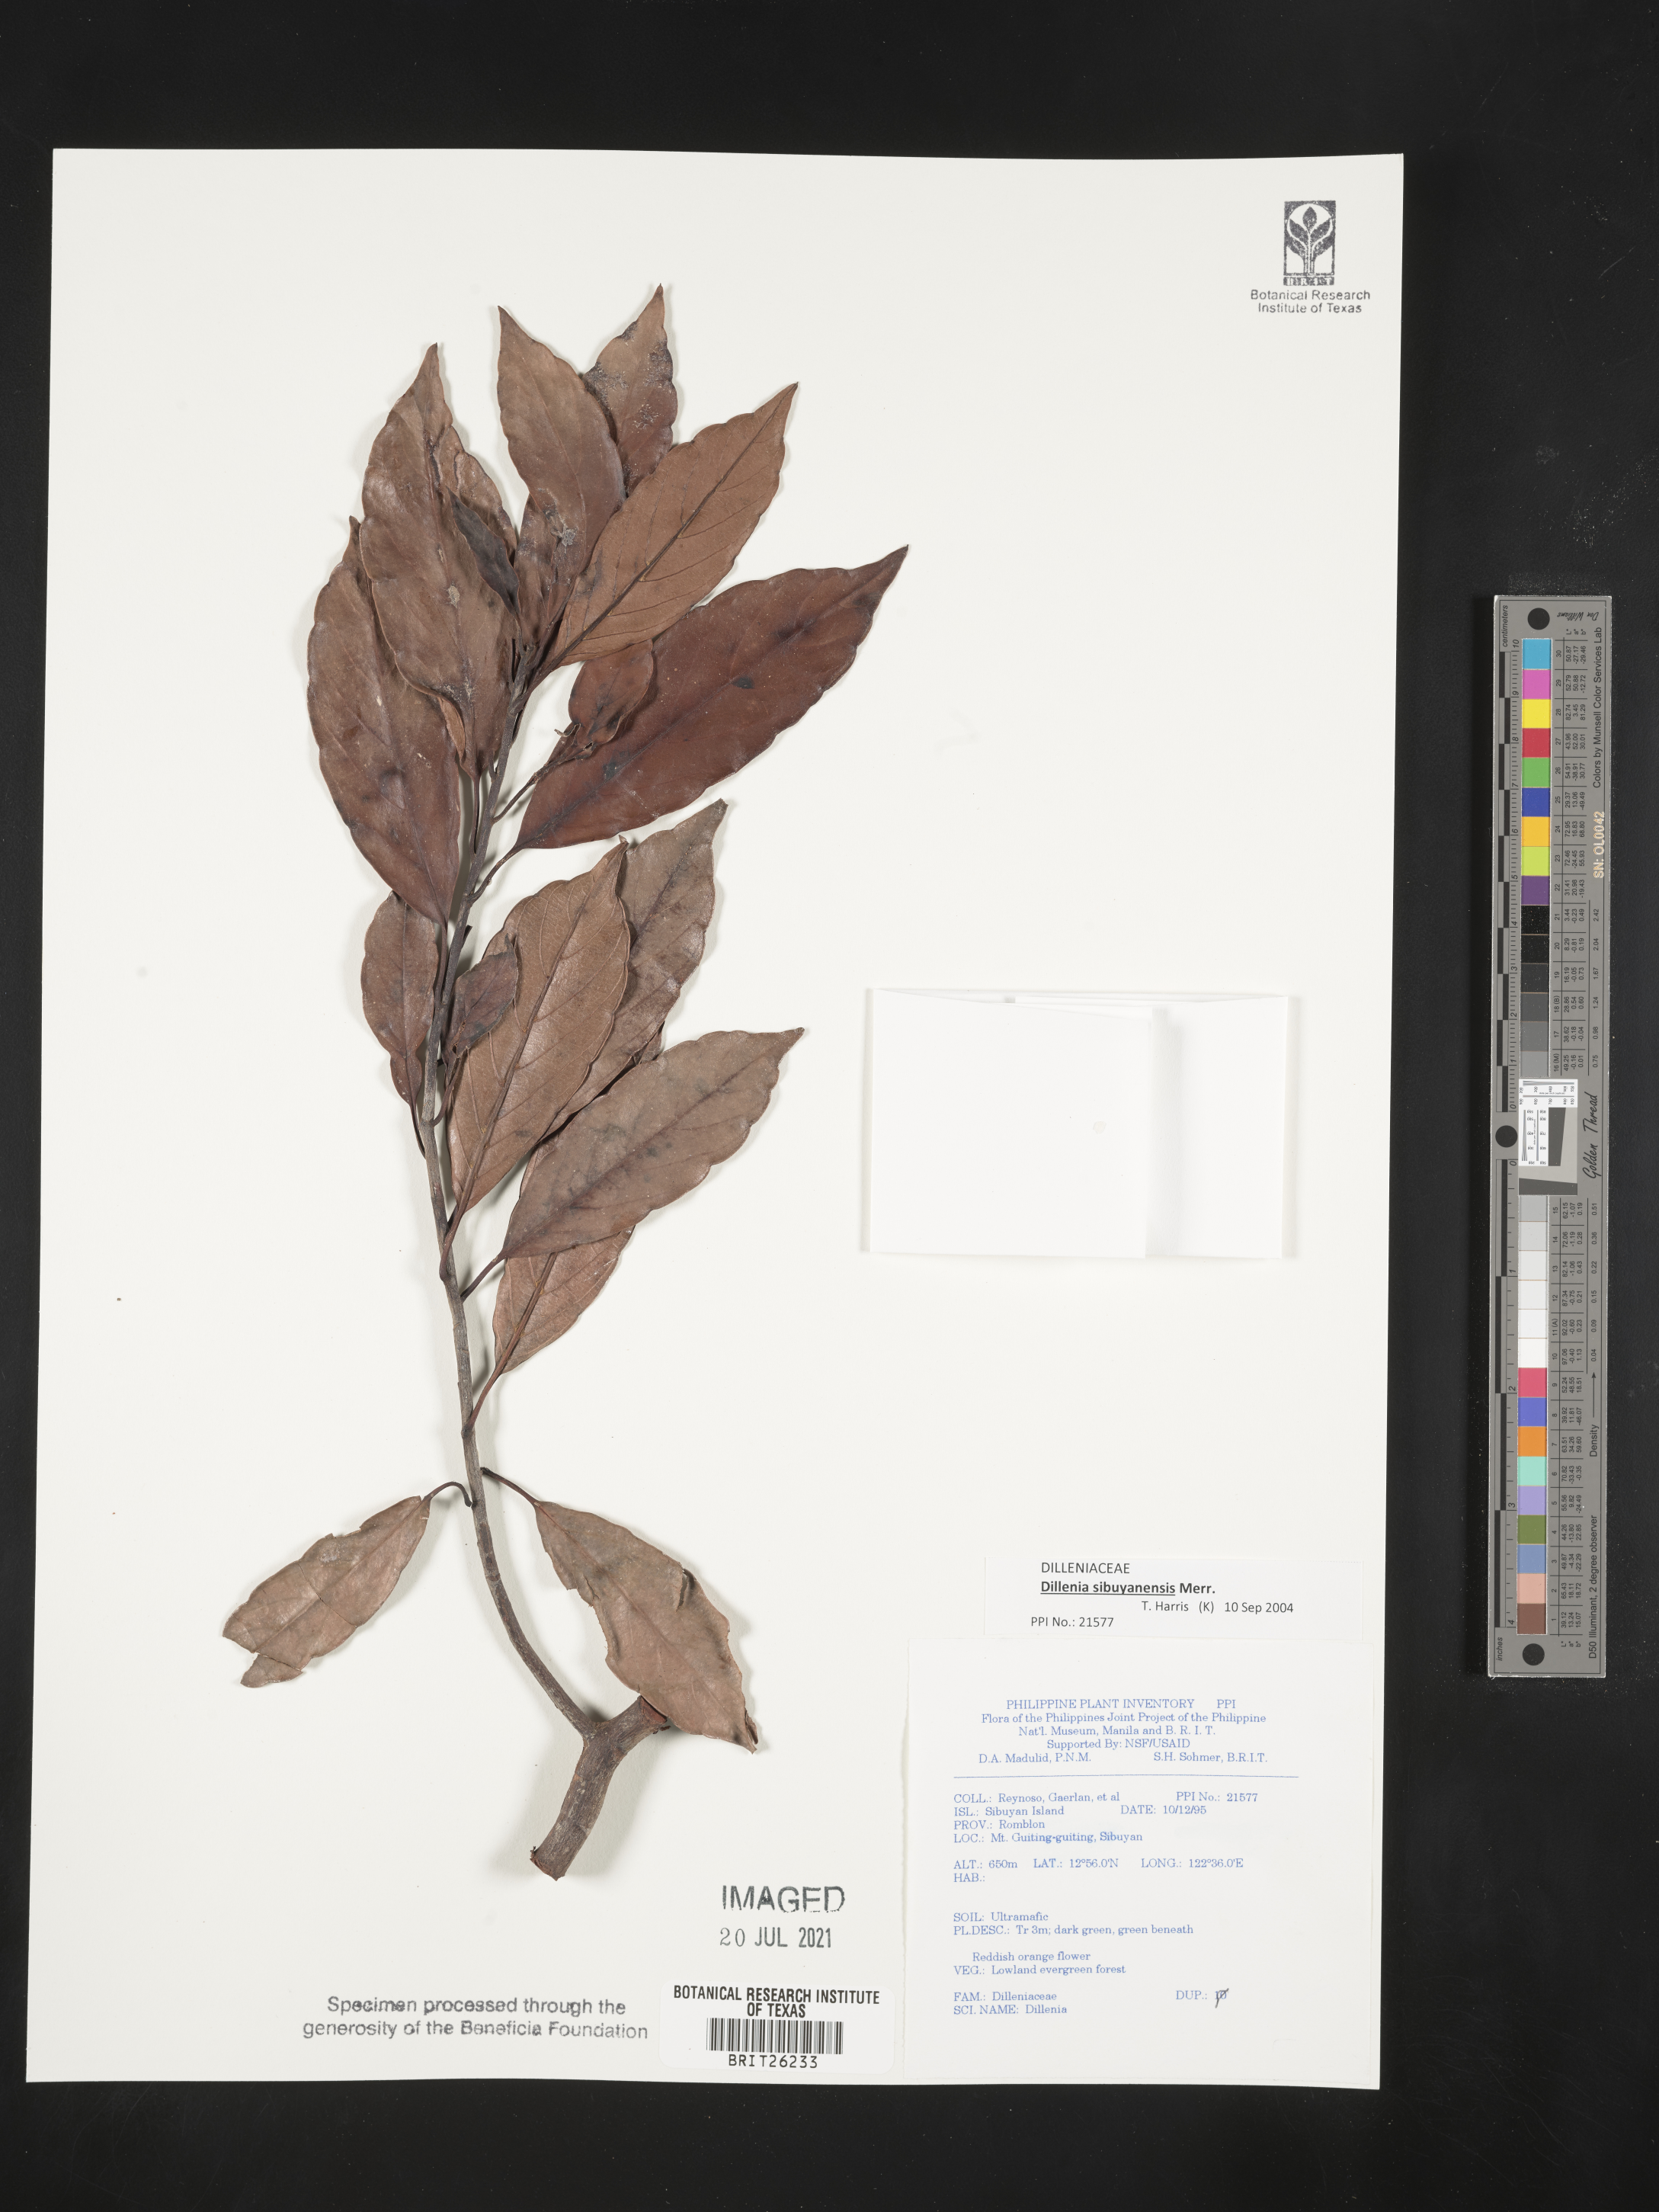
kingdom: Plantae
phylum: Tracheophyta
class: Magnoliopsida
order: Dilleniales
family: Dilleniaceae
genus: Dillenia
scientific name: Dillenia
